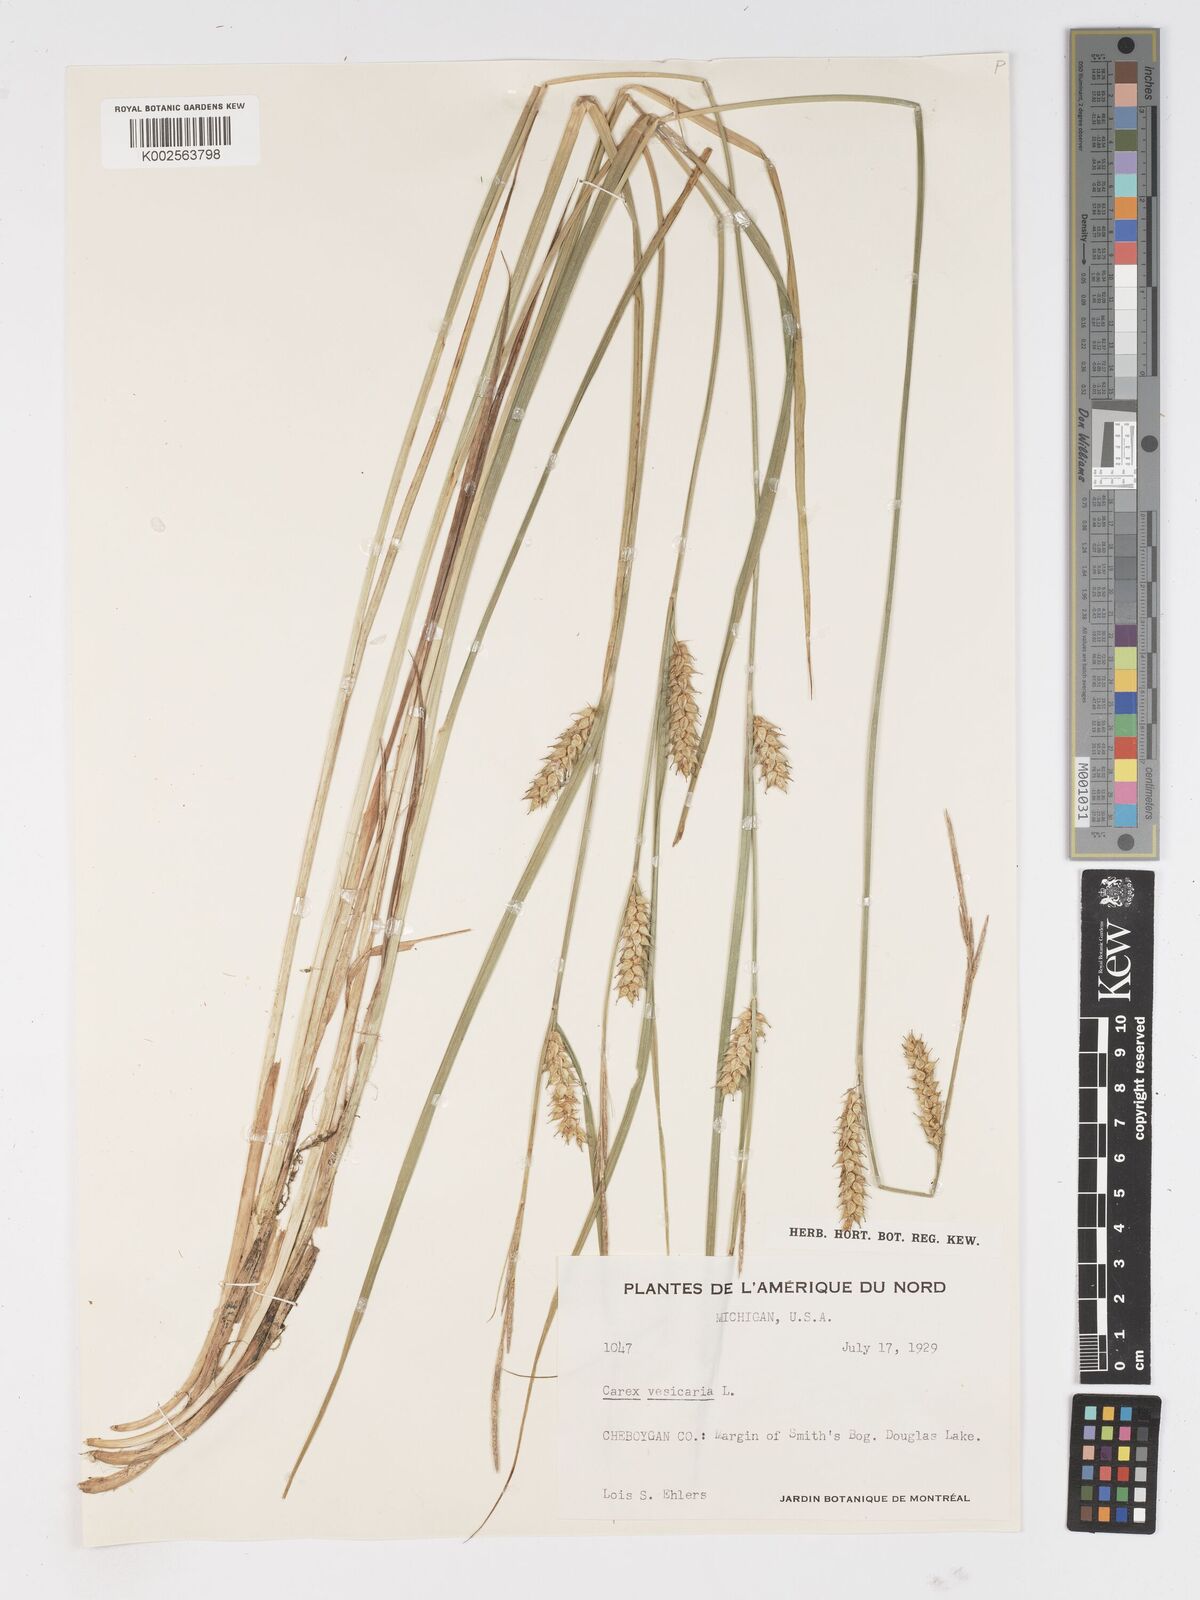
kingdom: Plantae
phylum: Tracheophyta
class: Liliopsida
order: Poales
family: Cyperaceae
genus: Carex
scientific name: Carex vesicaria
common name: Bladder-sedge
